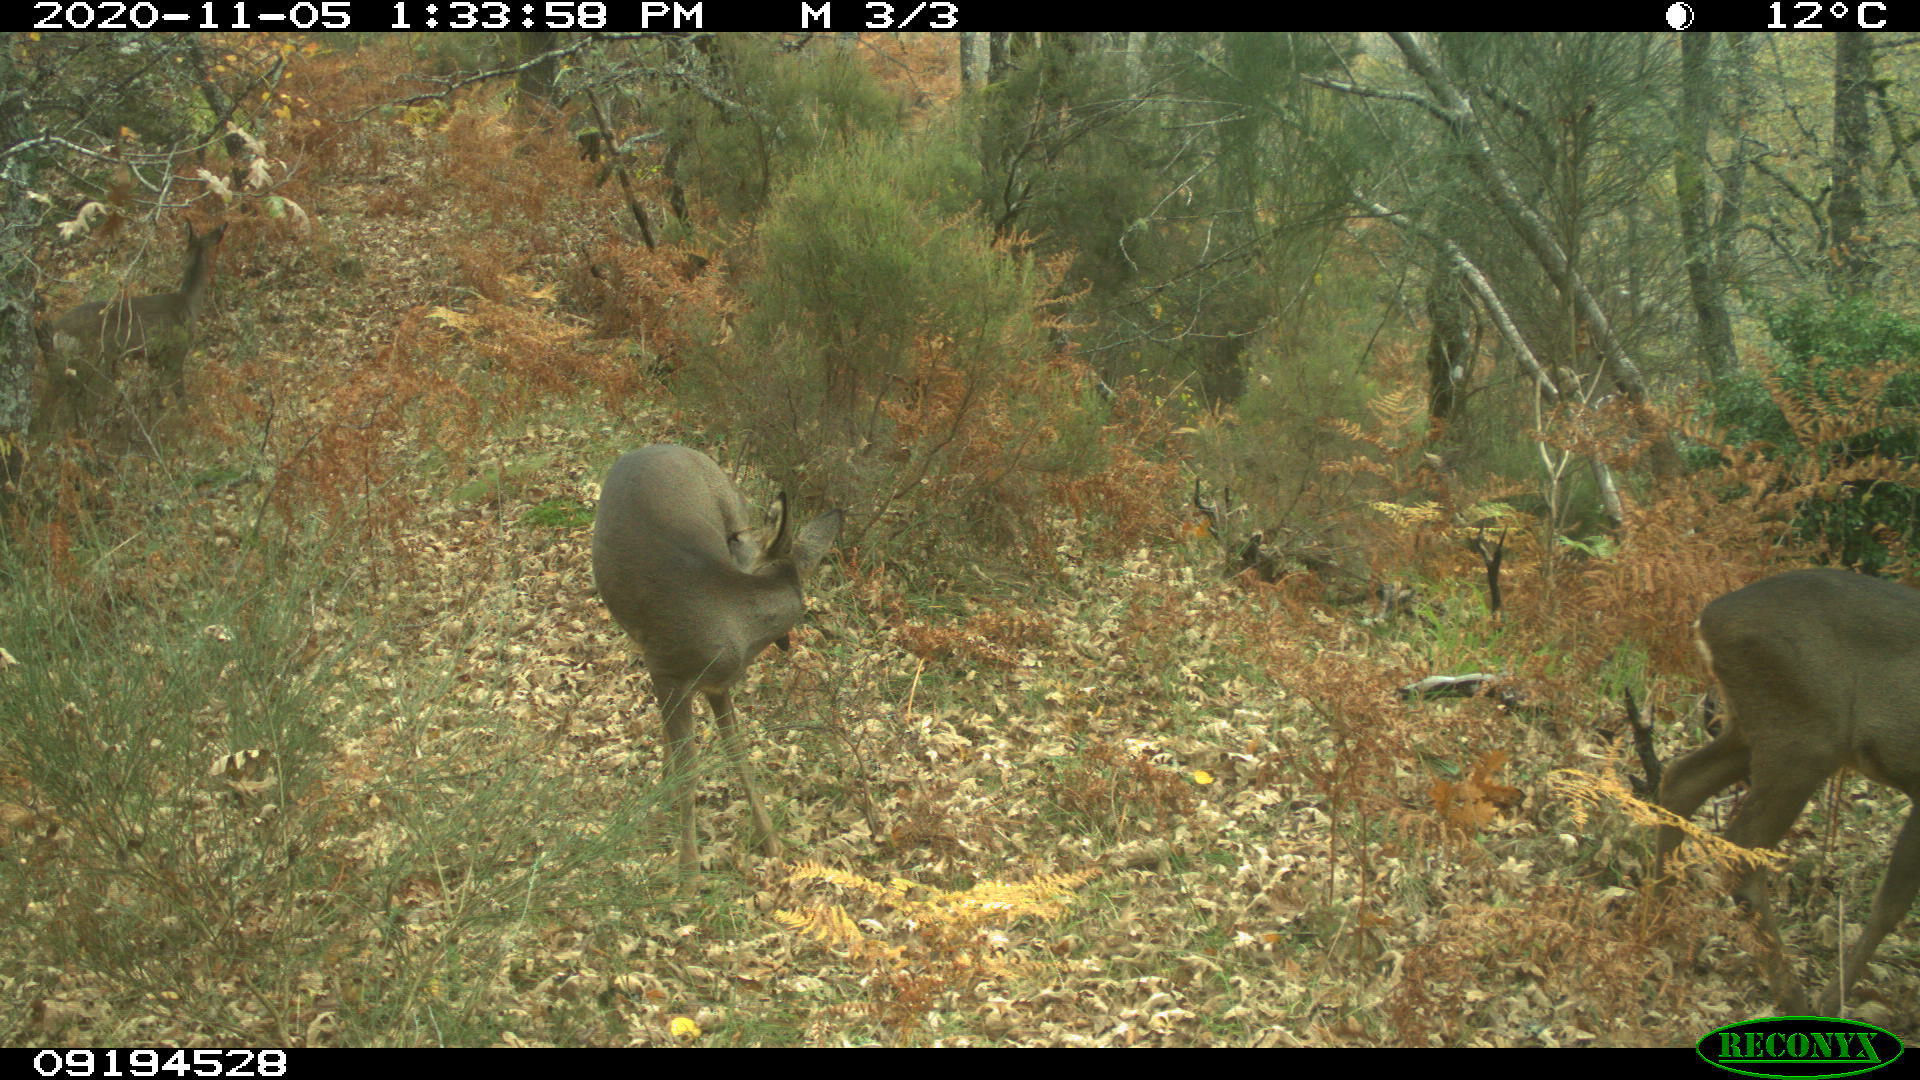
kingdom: Animalia
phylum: Chordata
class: Mammalia
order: Artiodactyla
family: Cervidae
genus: Capreolus
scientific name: Capreolus capreolus
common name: Western roe deer
